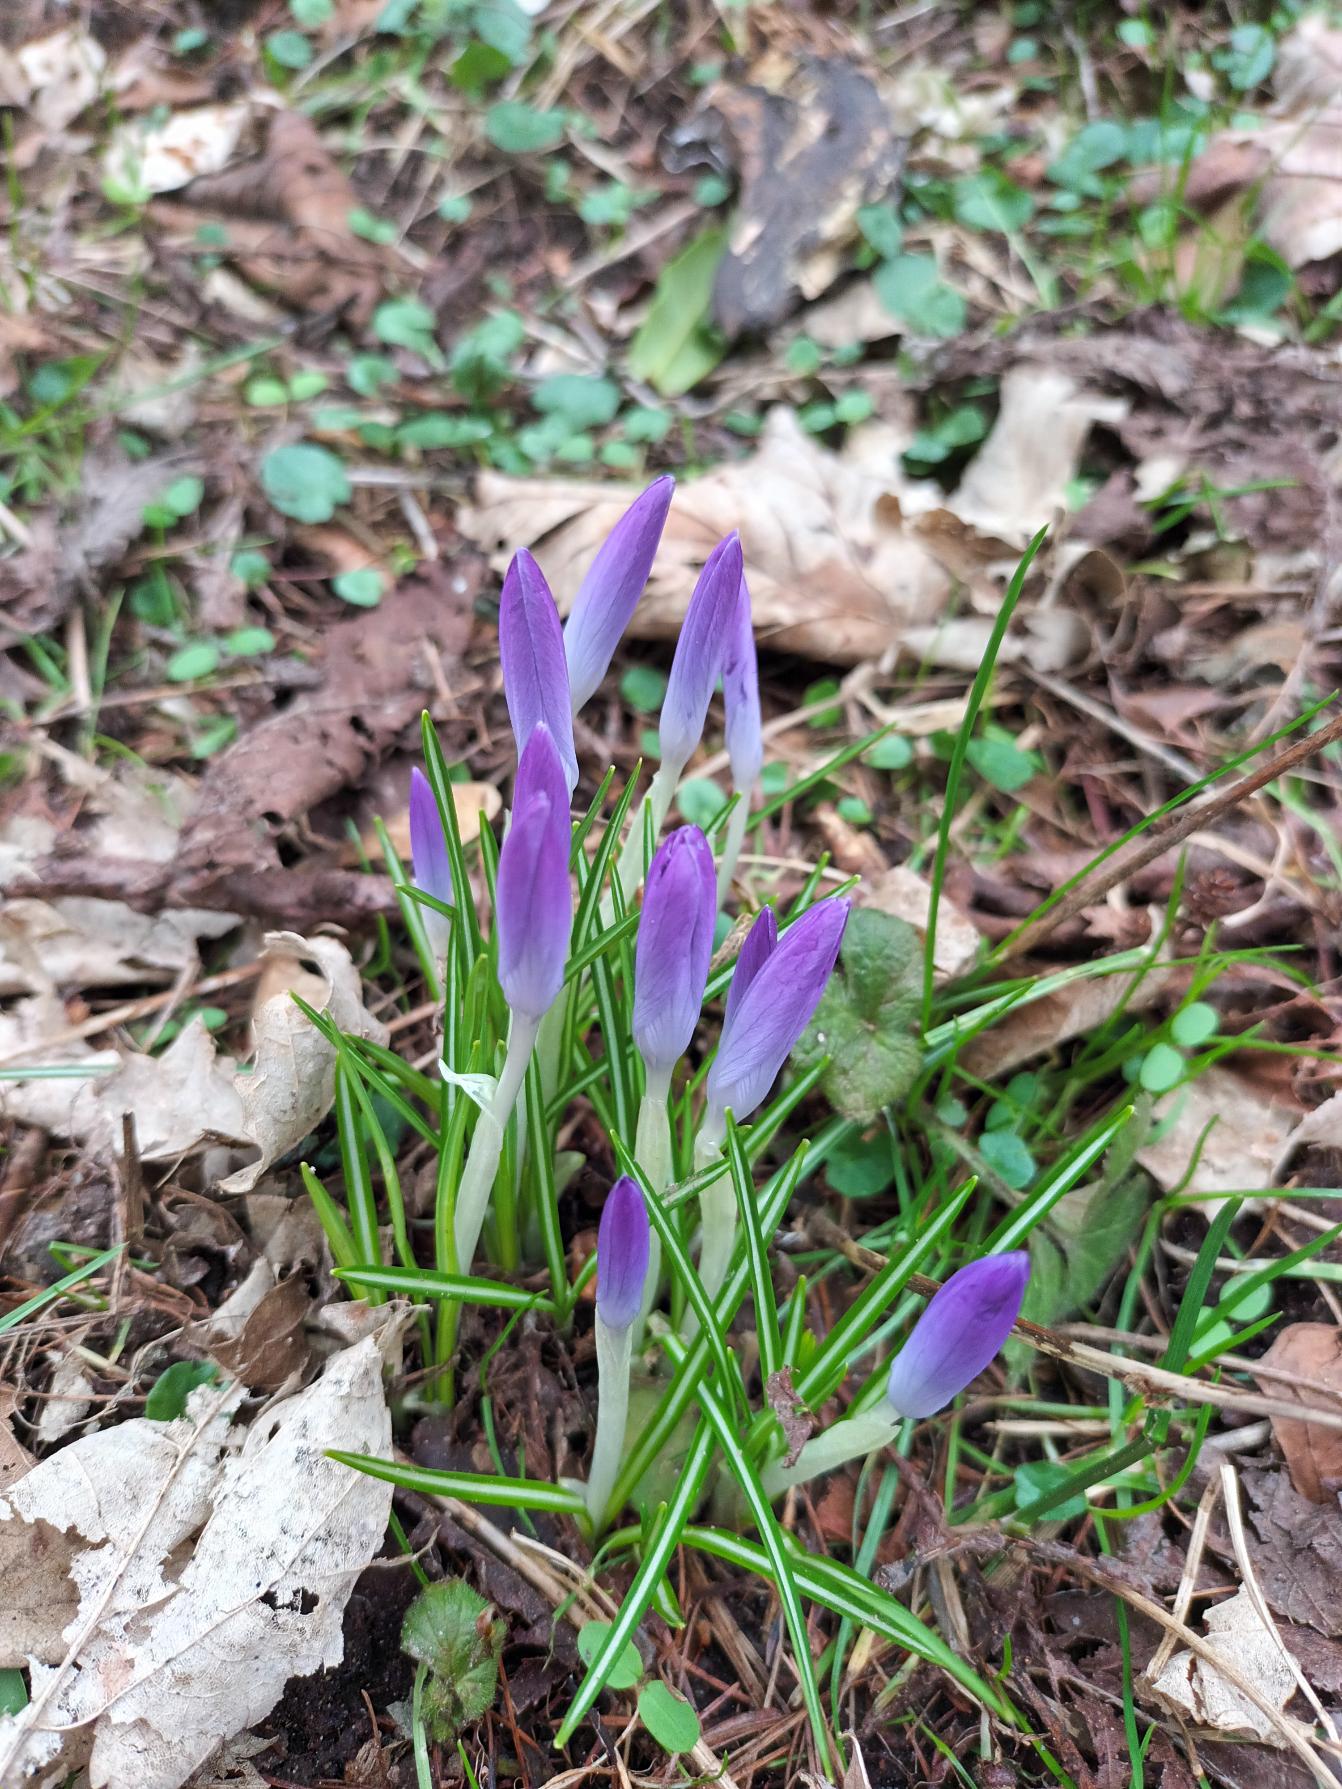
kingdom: Plantae
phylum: Tracheophyta
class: Liliopsida
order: Asparagales
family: Iridaceae
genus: Crocus
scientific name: Crocus tommasinianus
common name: Sne-krokus
